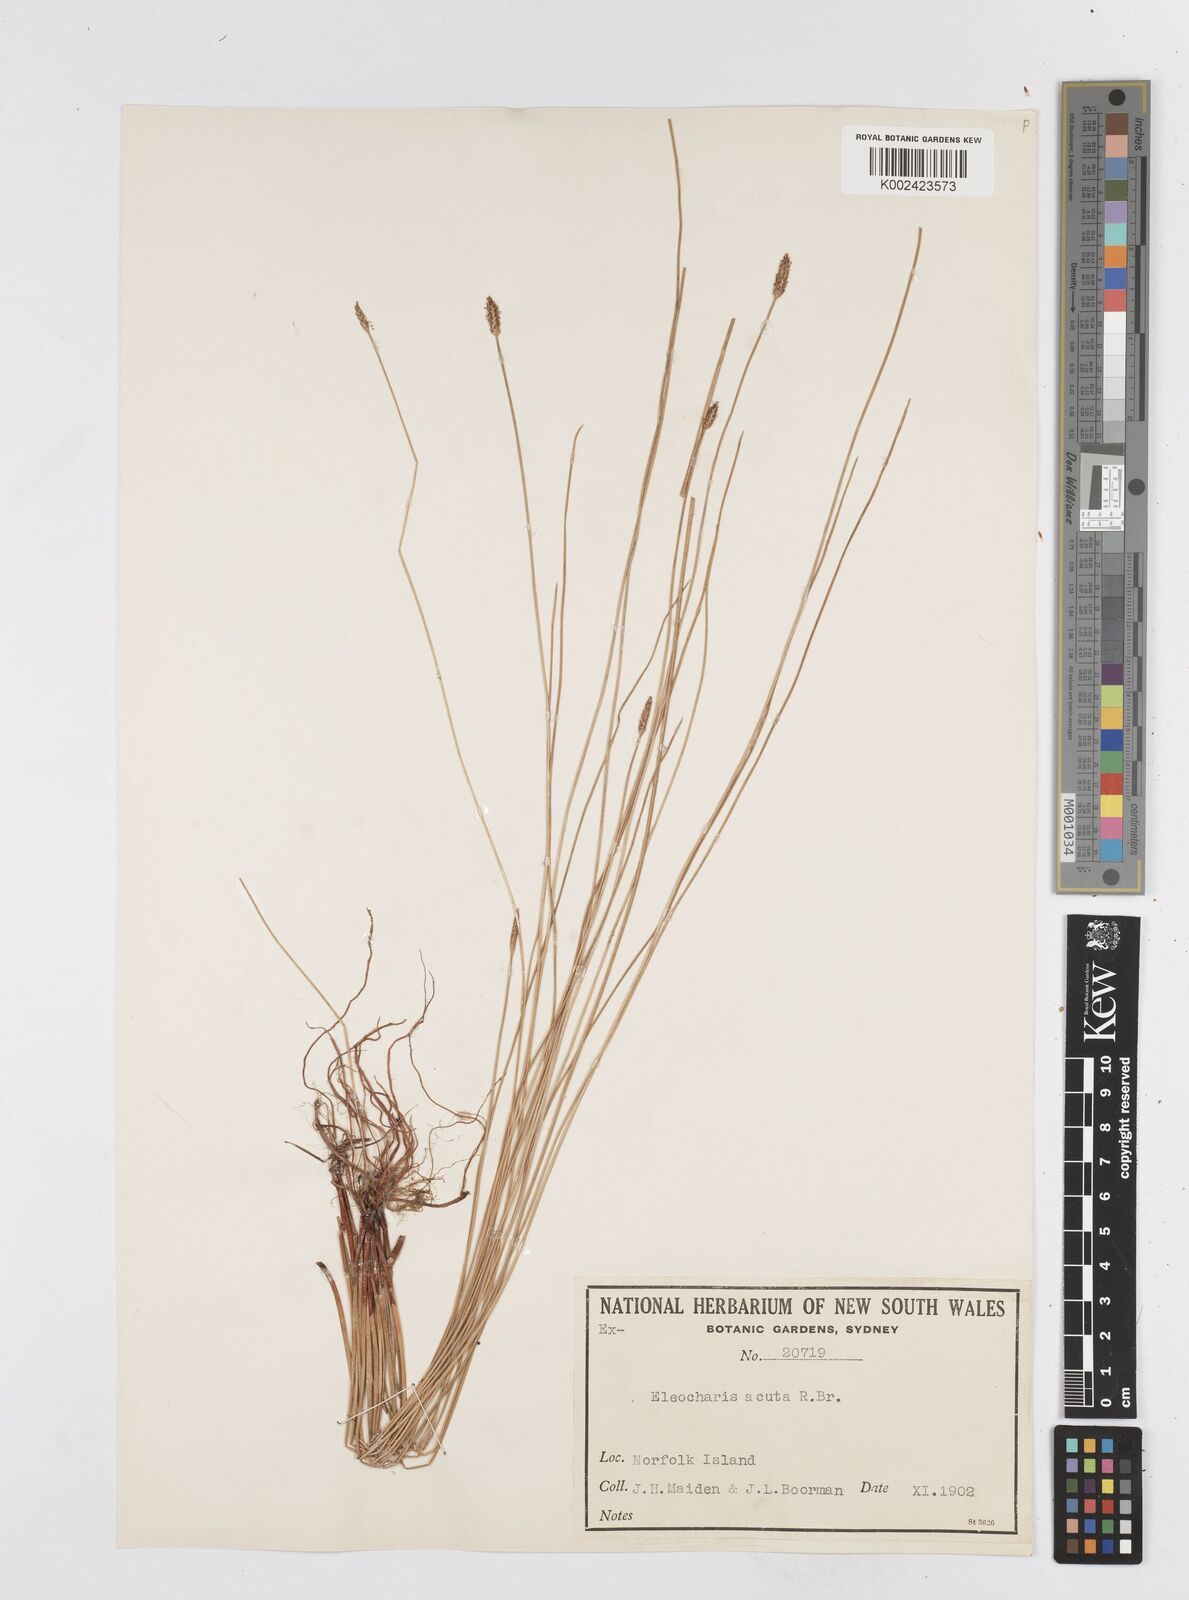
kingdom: Plantae
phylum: Tracheophyta
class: Liliopsida
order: Poales
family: Cyperaceae
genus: Eleocharis
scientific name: Eleocharis acuta
